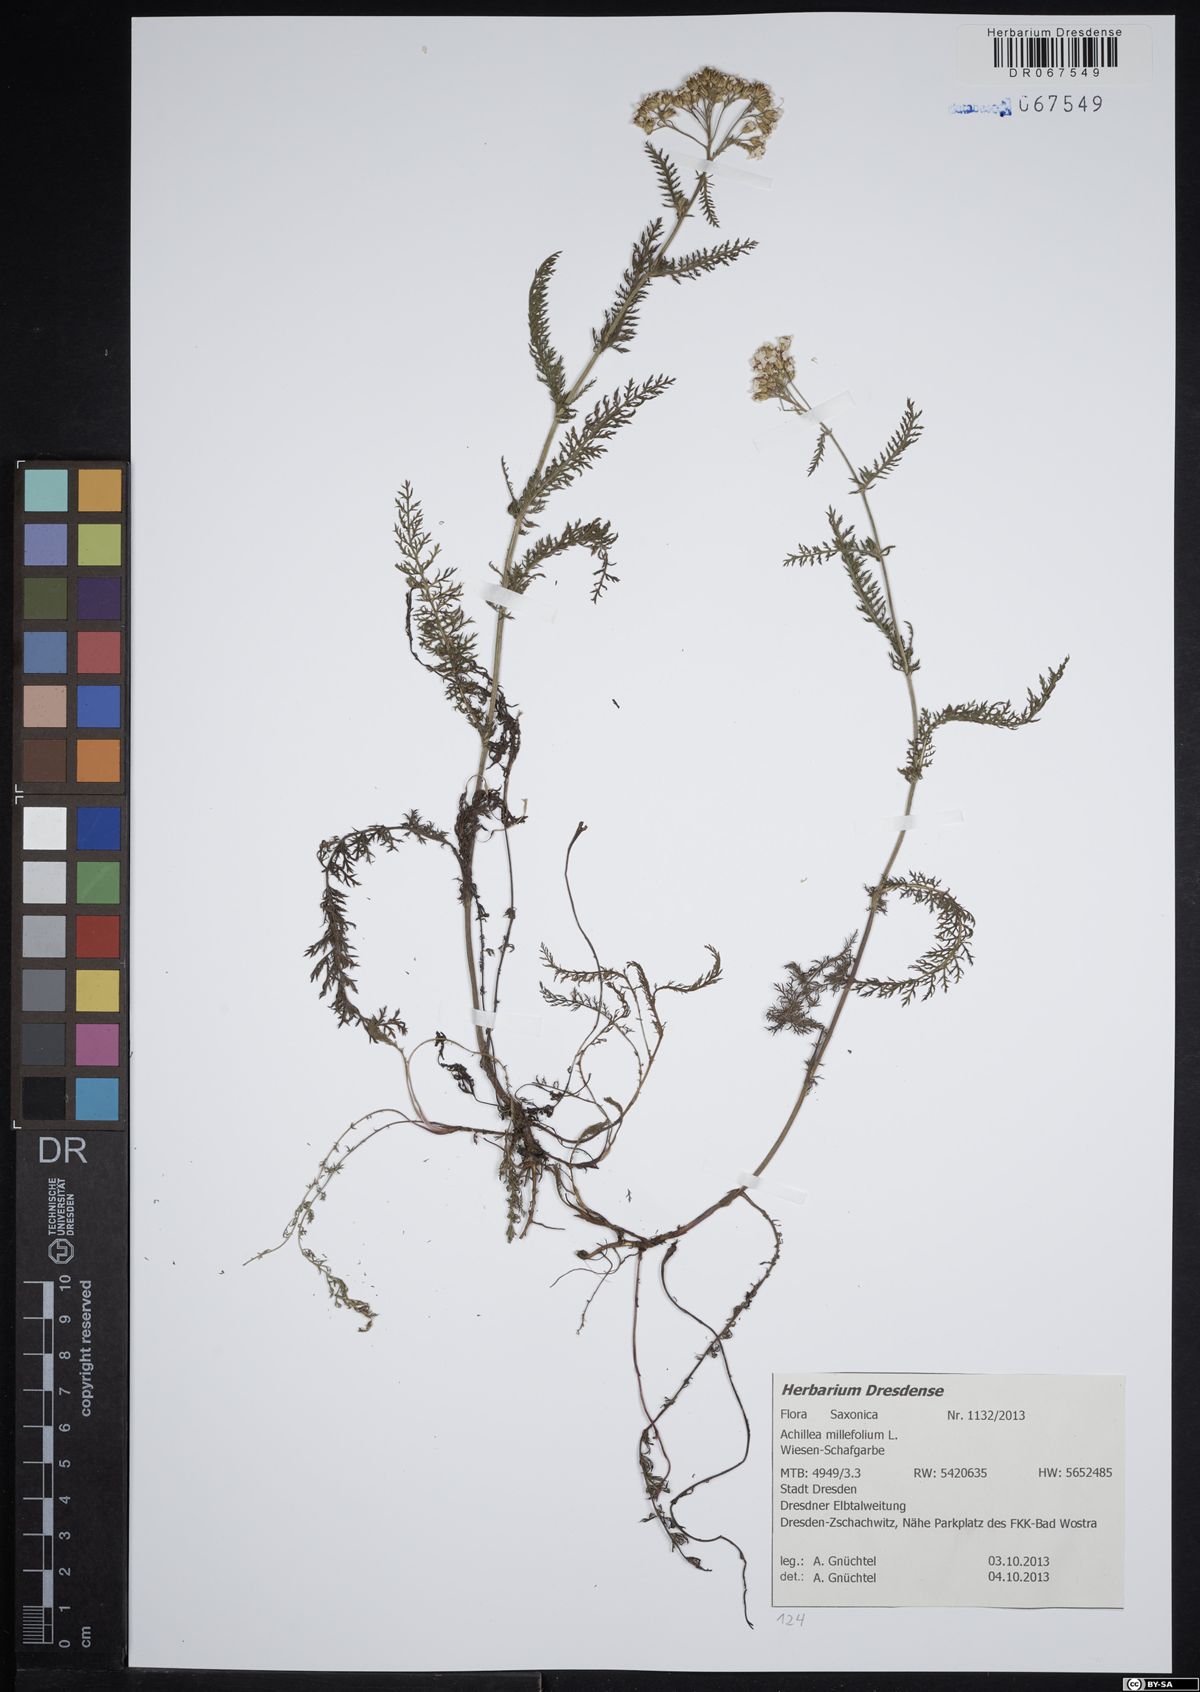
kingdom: Plantae
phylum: Tracheophyta
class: Magnoliopsida
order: Asterales
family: Asteraceae
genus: Achillea
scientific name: Achillea millefolium
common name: Yarrow
